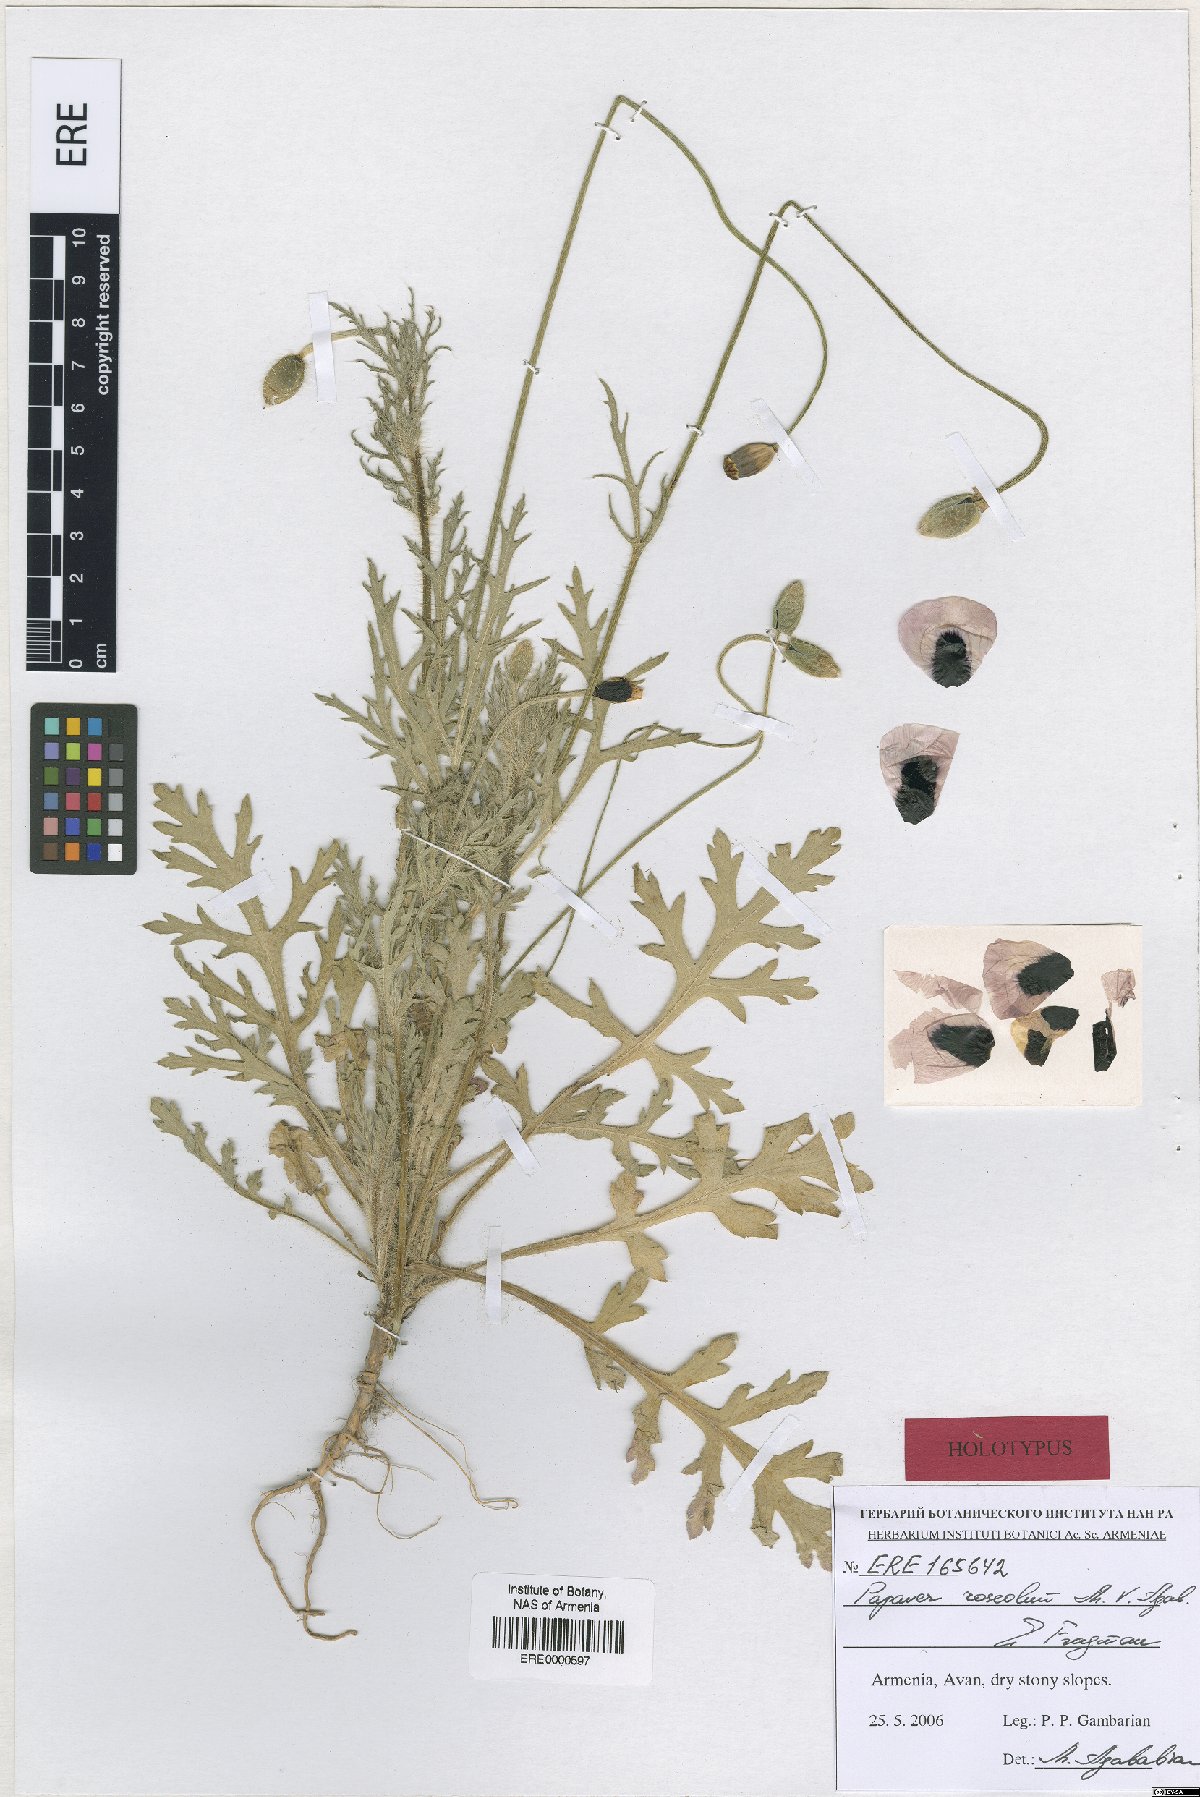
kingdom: Plantae
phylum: Tracheophyta
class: Magnoliopsida
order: Ranunculales
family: Papaveraceae
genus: Papaver
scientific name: Papaver roseolum
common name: Pinkish poppy
